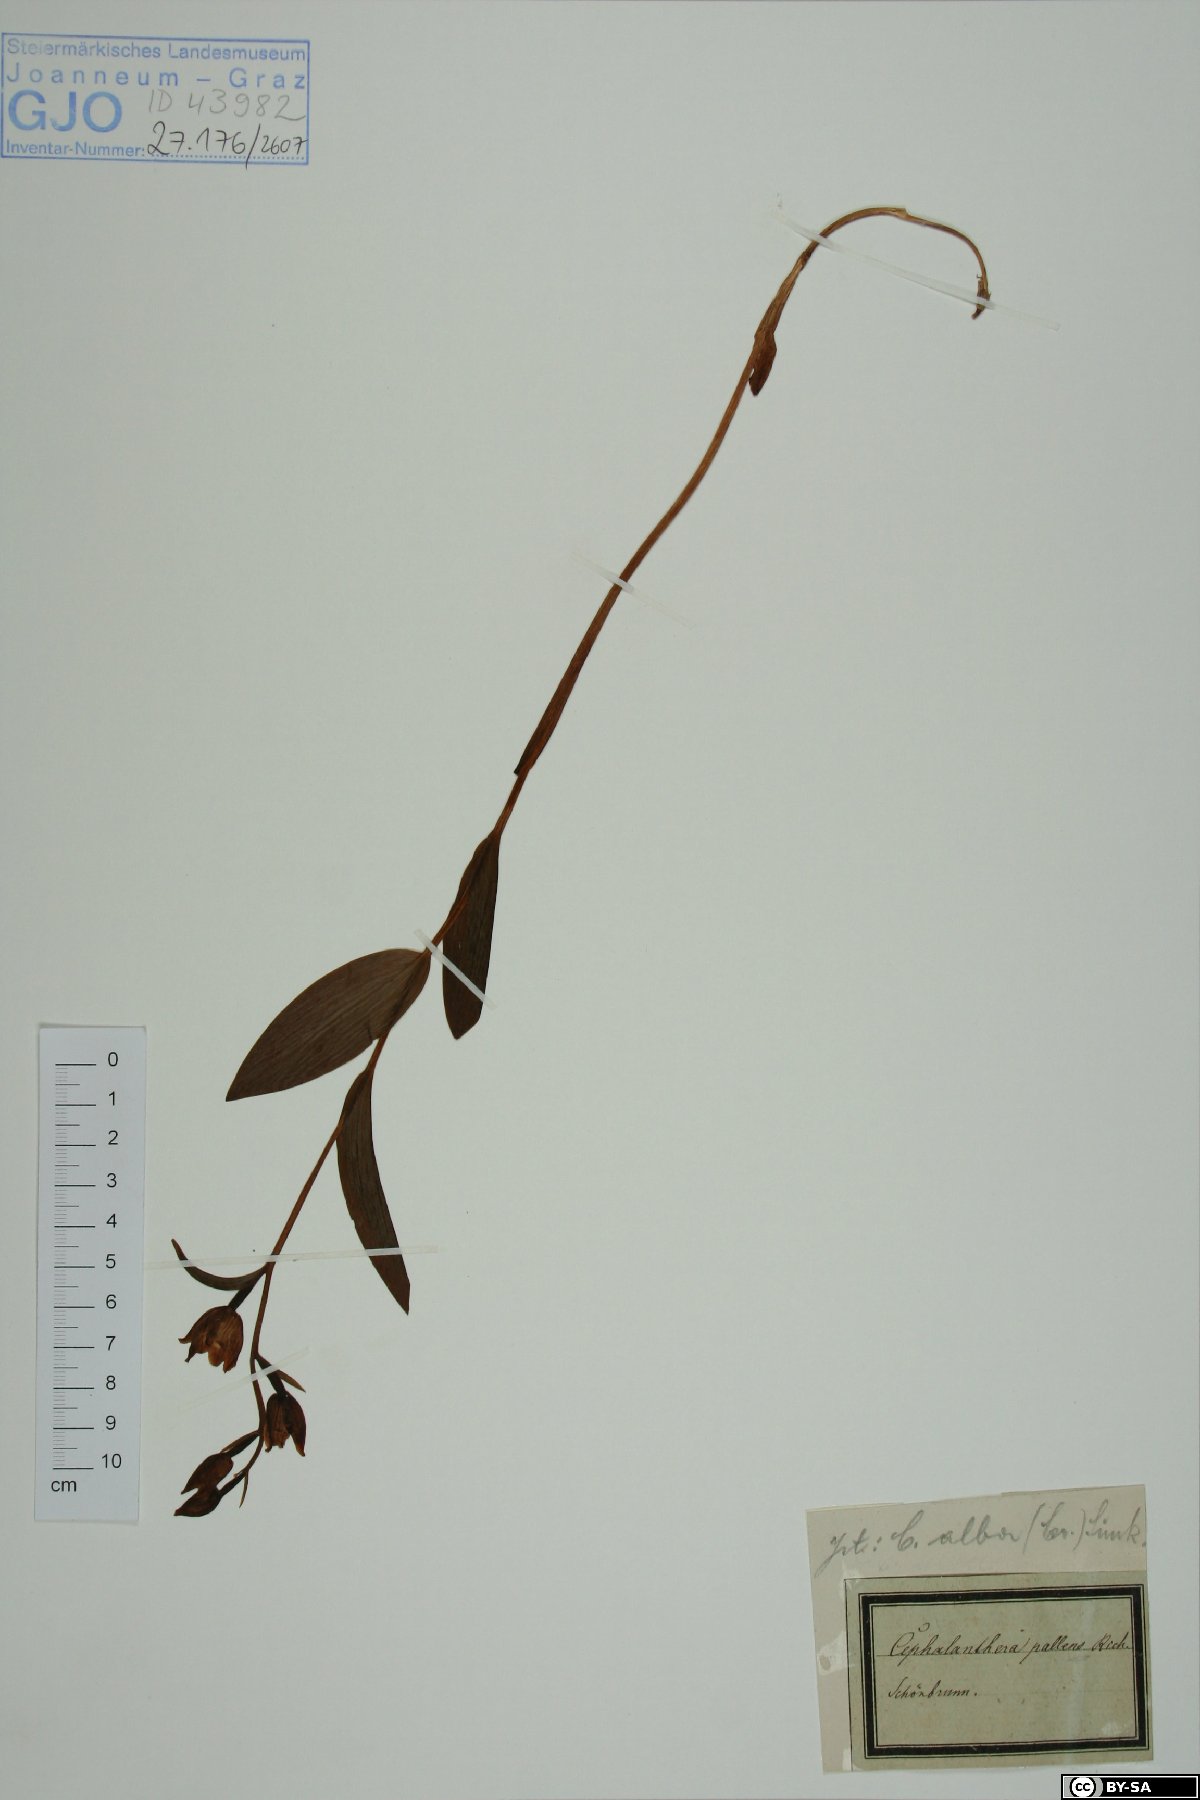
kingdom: Plantae
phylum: Tracheophyta
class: Liliopsida
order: Asparagales
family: Orchidaceae
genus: Cephalanthera
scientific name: Cephalanthera longifolia
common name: Narrow-leaved helleborine
